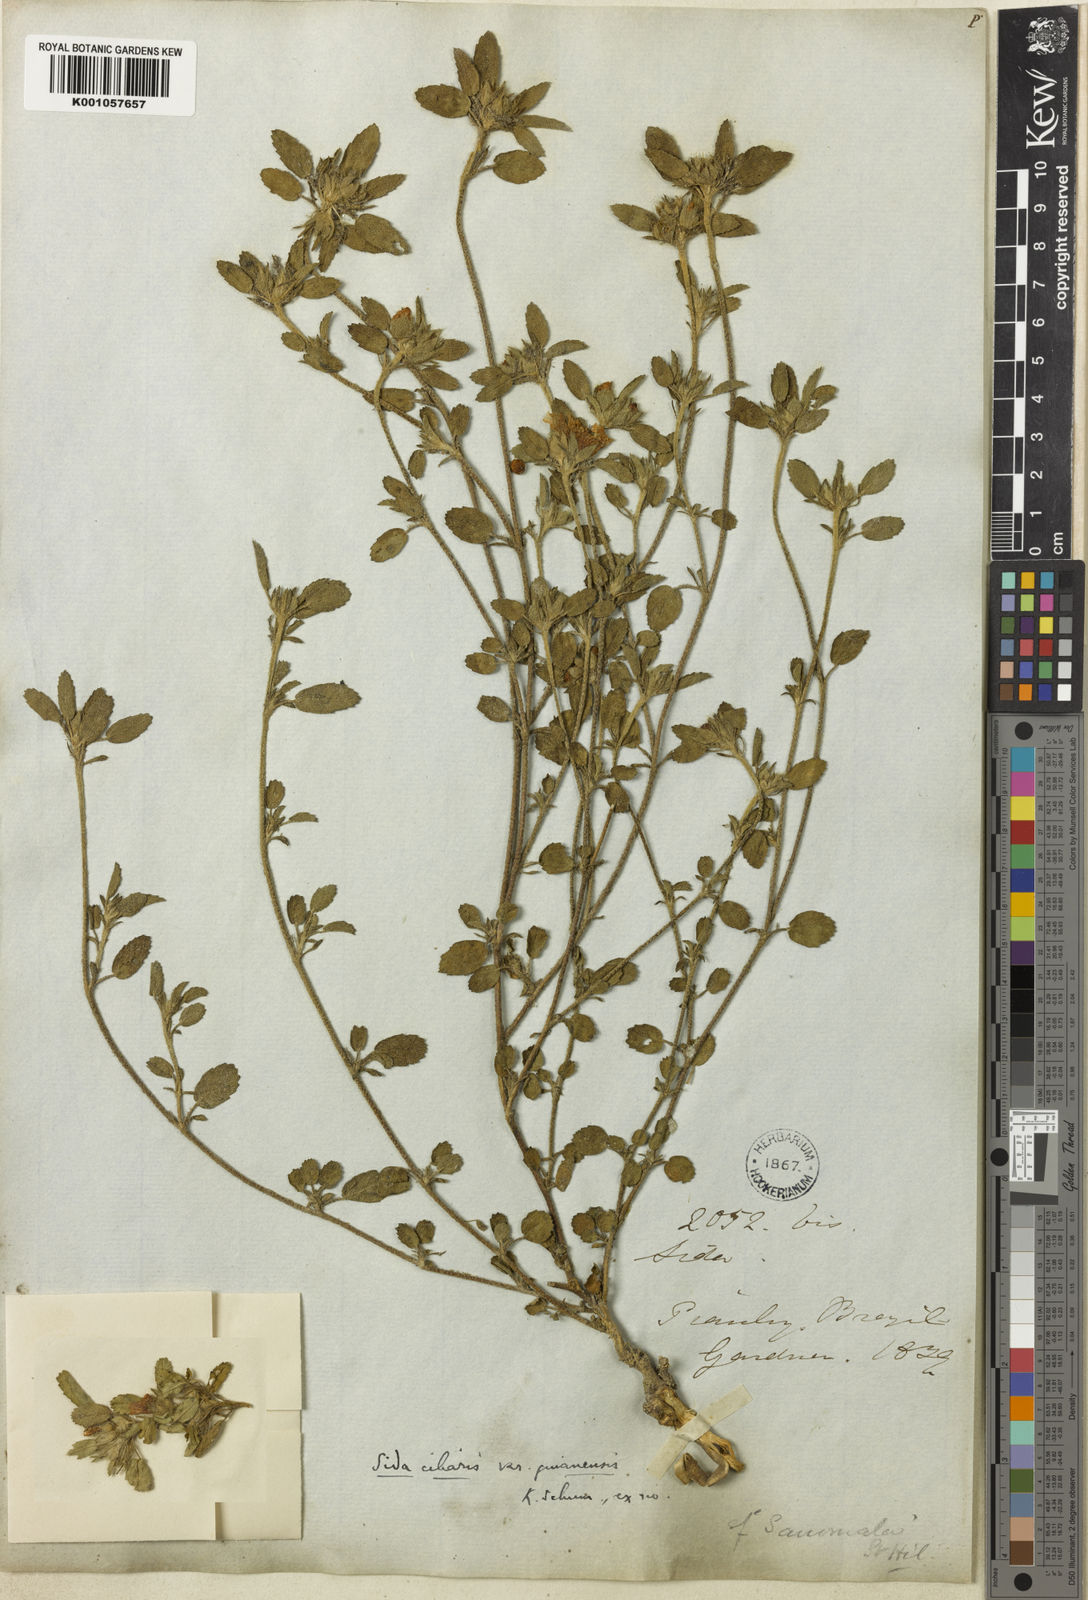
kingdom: Plantae
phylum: Tracheophyta
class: Magnoliopsida
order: Malvales
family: Malvaceae
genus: Sida
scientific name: Sida ciliaris
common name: Bracted fanpetals
